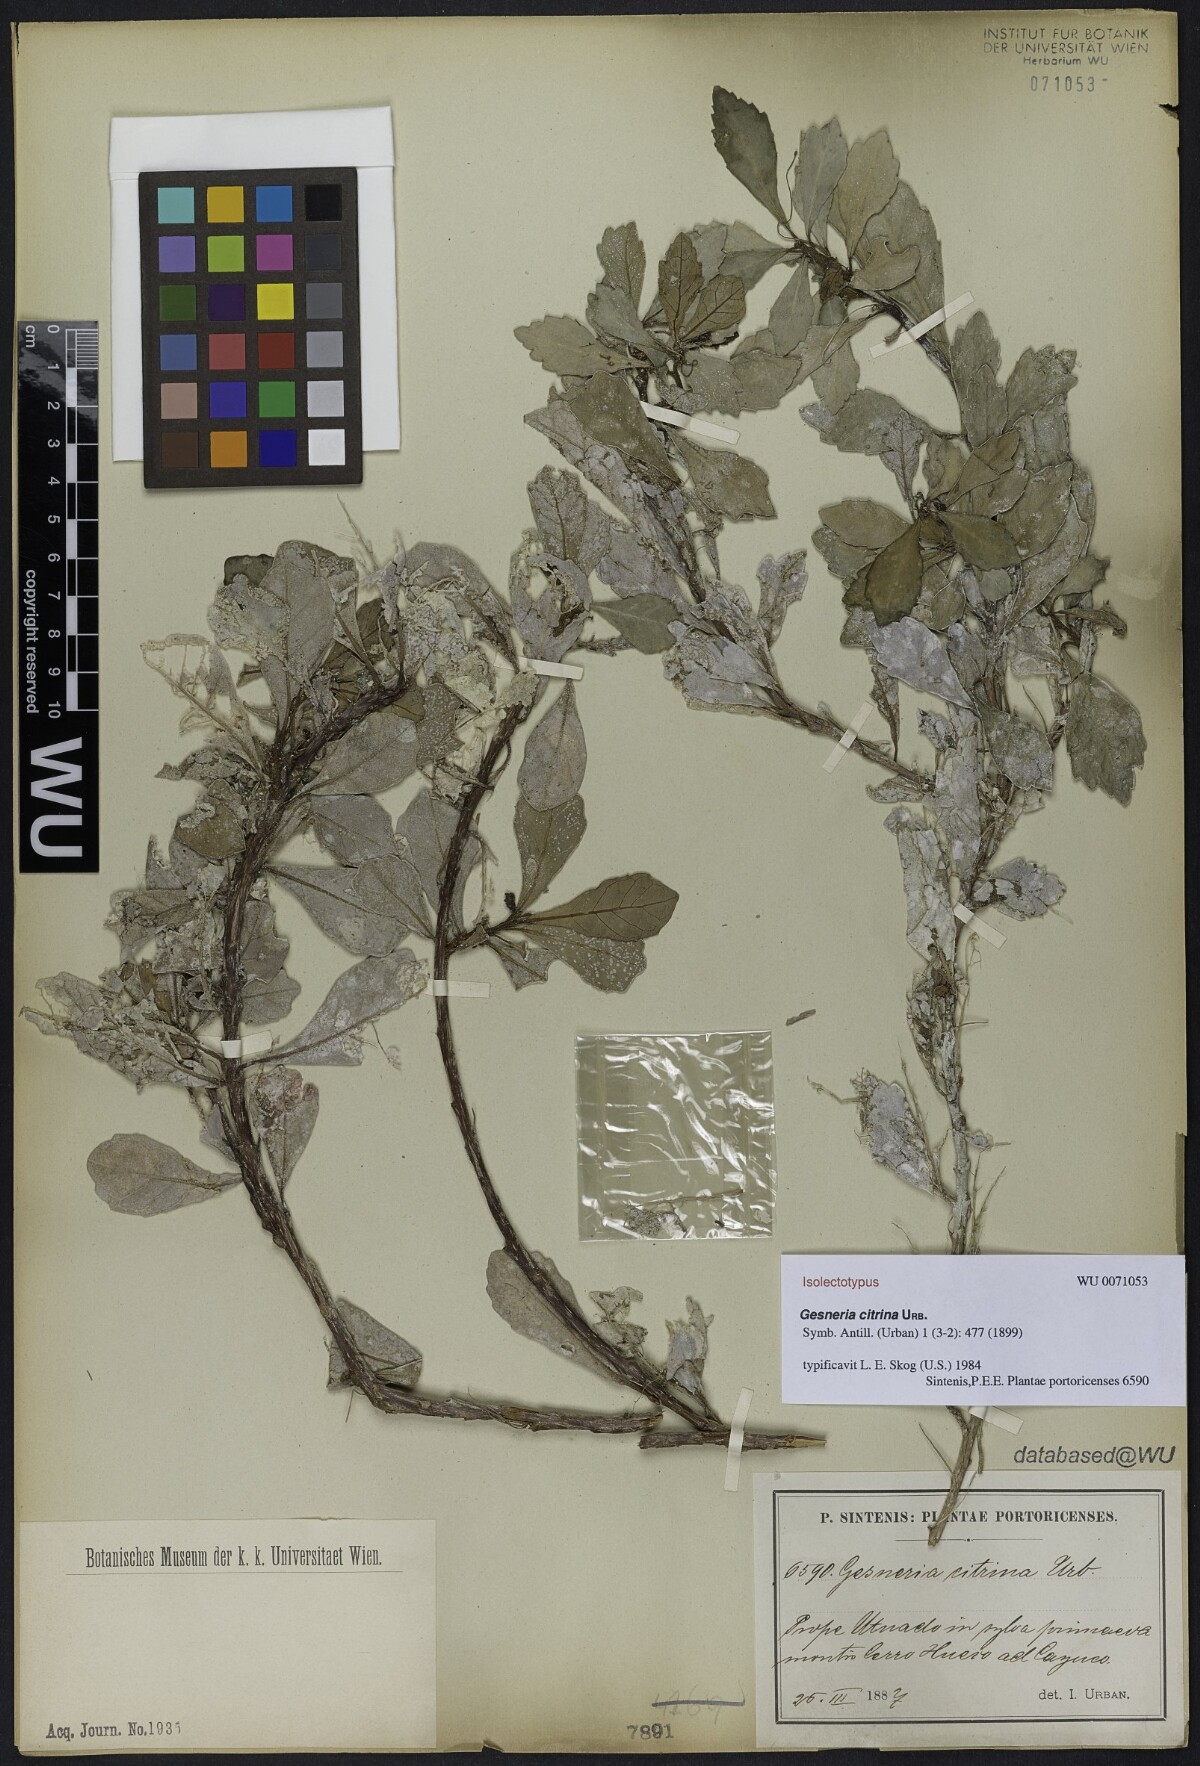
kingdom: Plantae
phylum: Tracheophyta
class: Magnoliopsida
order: Lamiales
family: Gesneriaceae
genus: Gesneria
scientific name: Gesneria citrina
